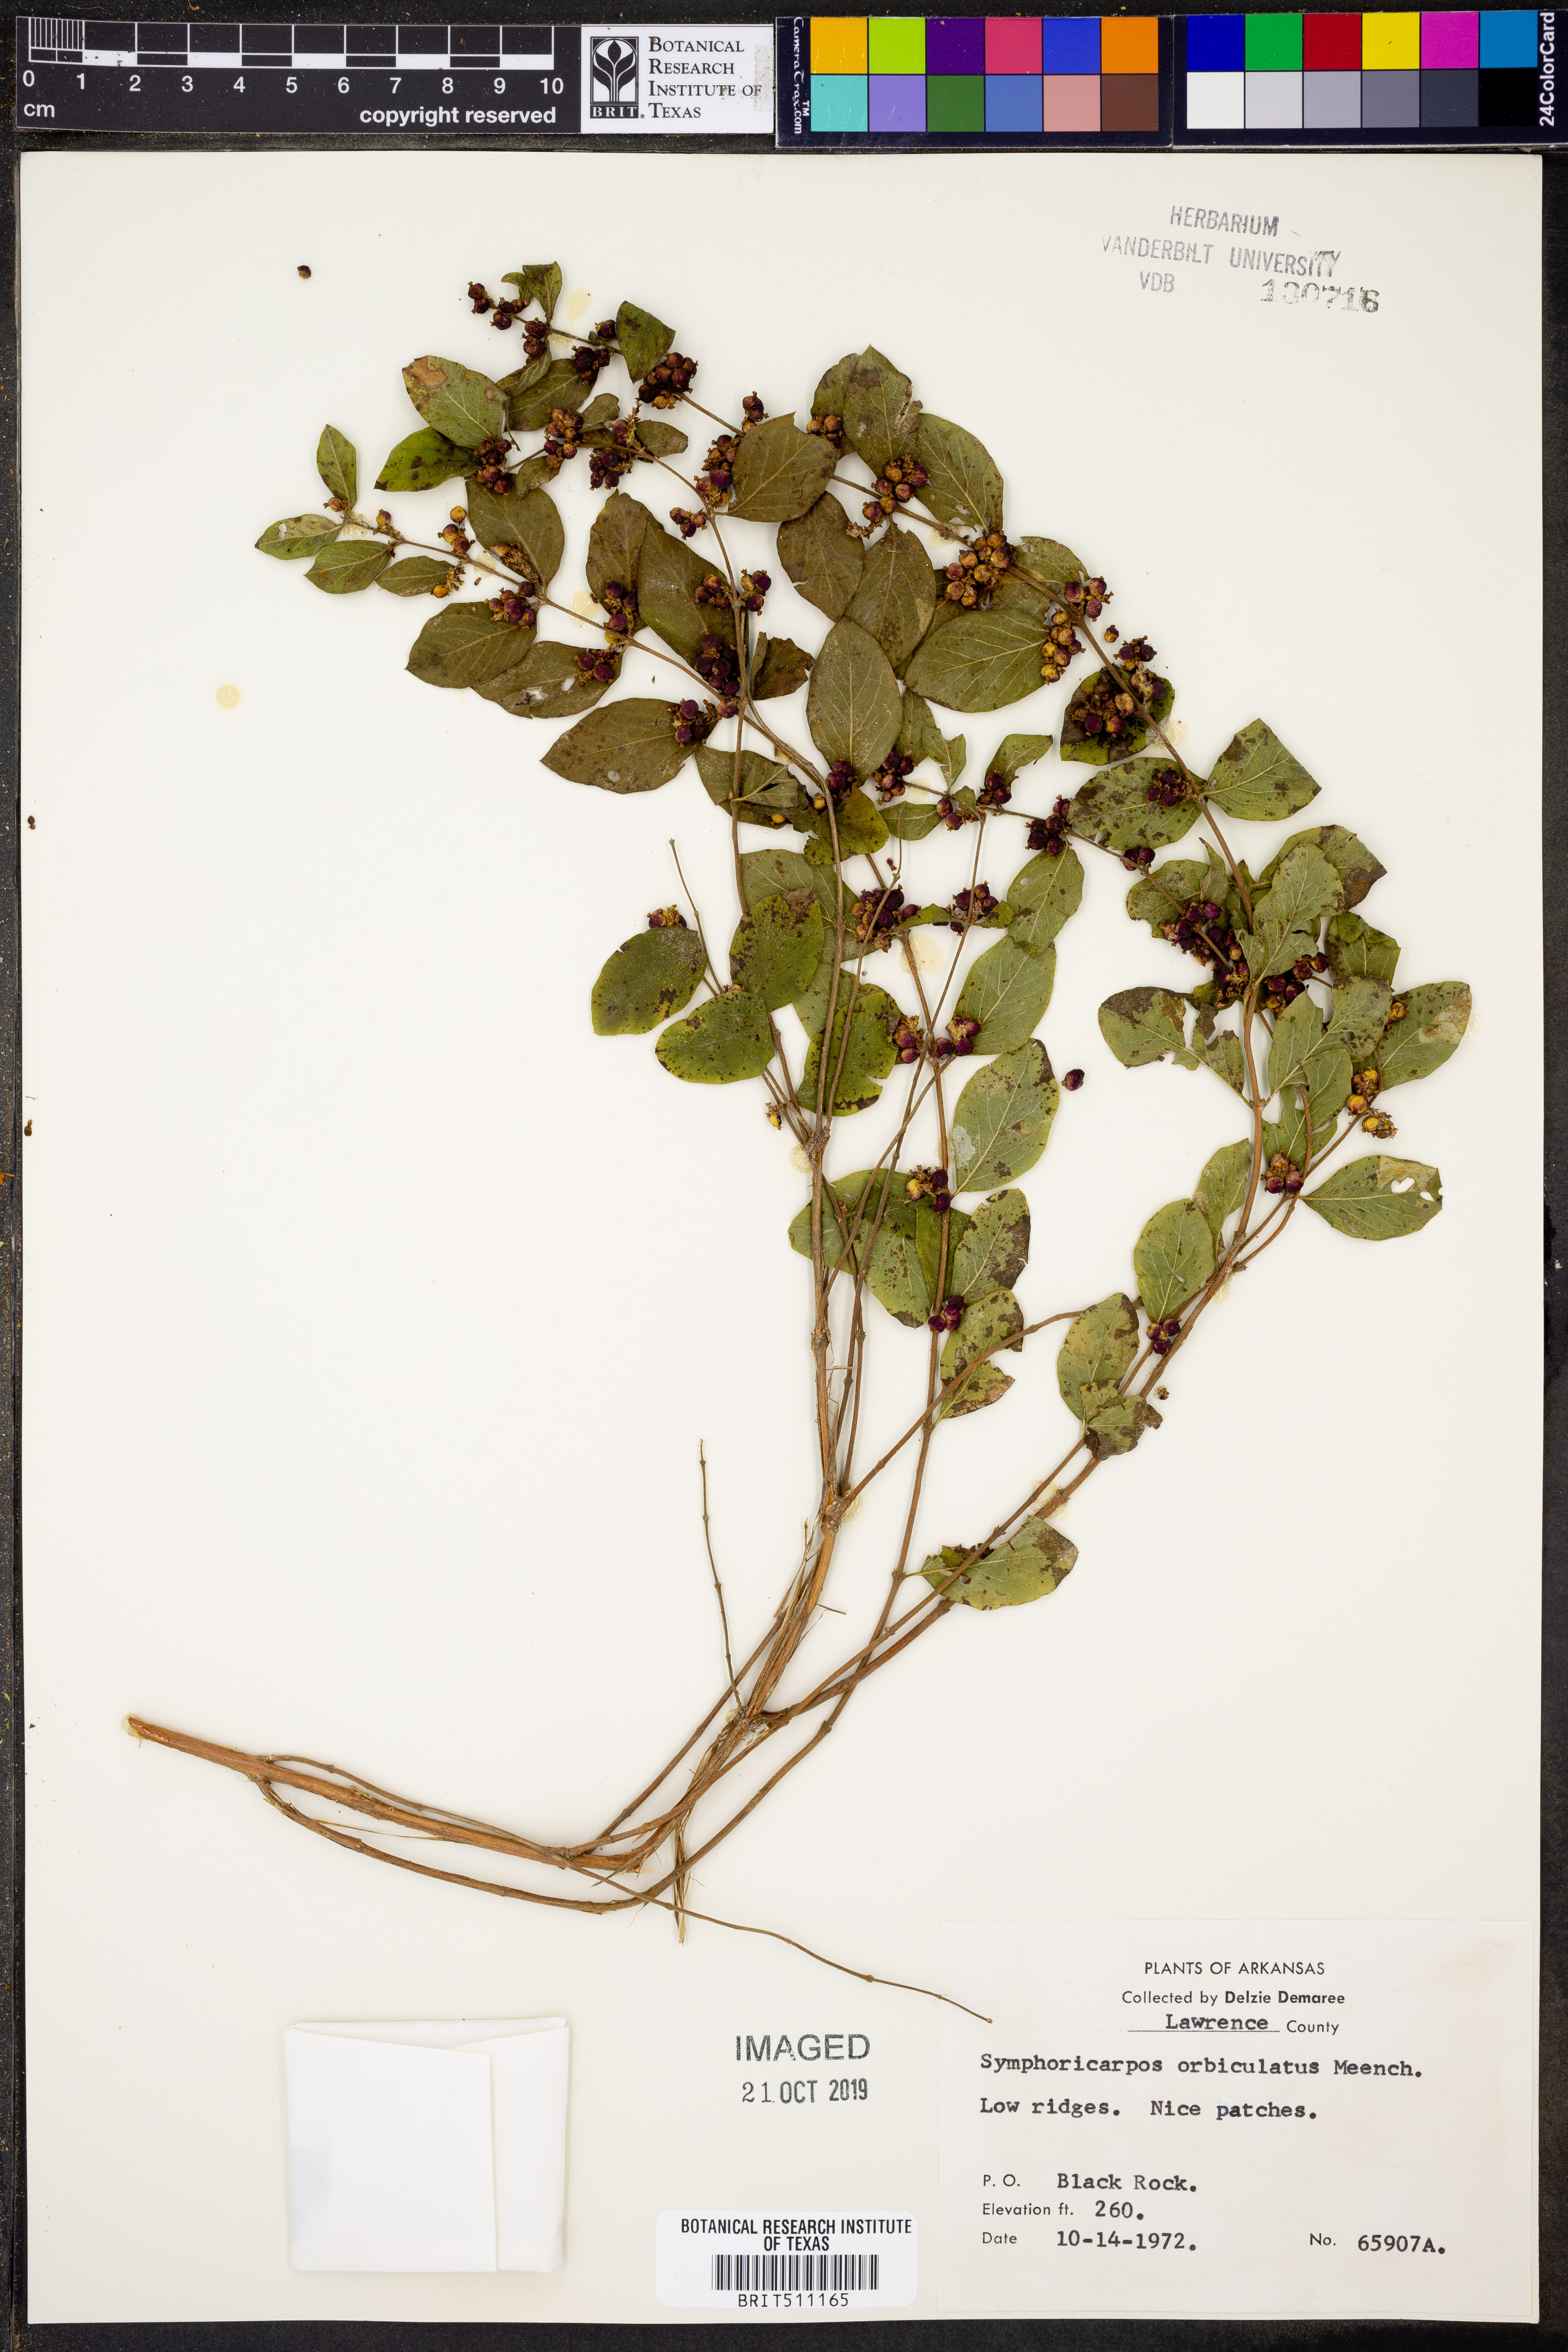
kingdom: Plantae
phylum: Tracheophyta
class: Magnoliopsida
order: Dipsacales
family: Caprifoliaceae
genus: Symphoricarpos
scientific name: Symphoricarpos orbiculatus
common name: Coralberry
